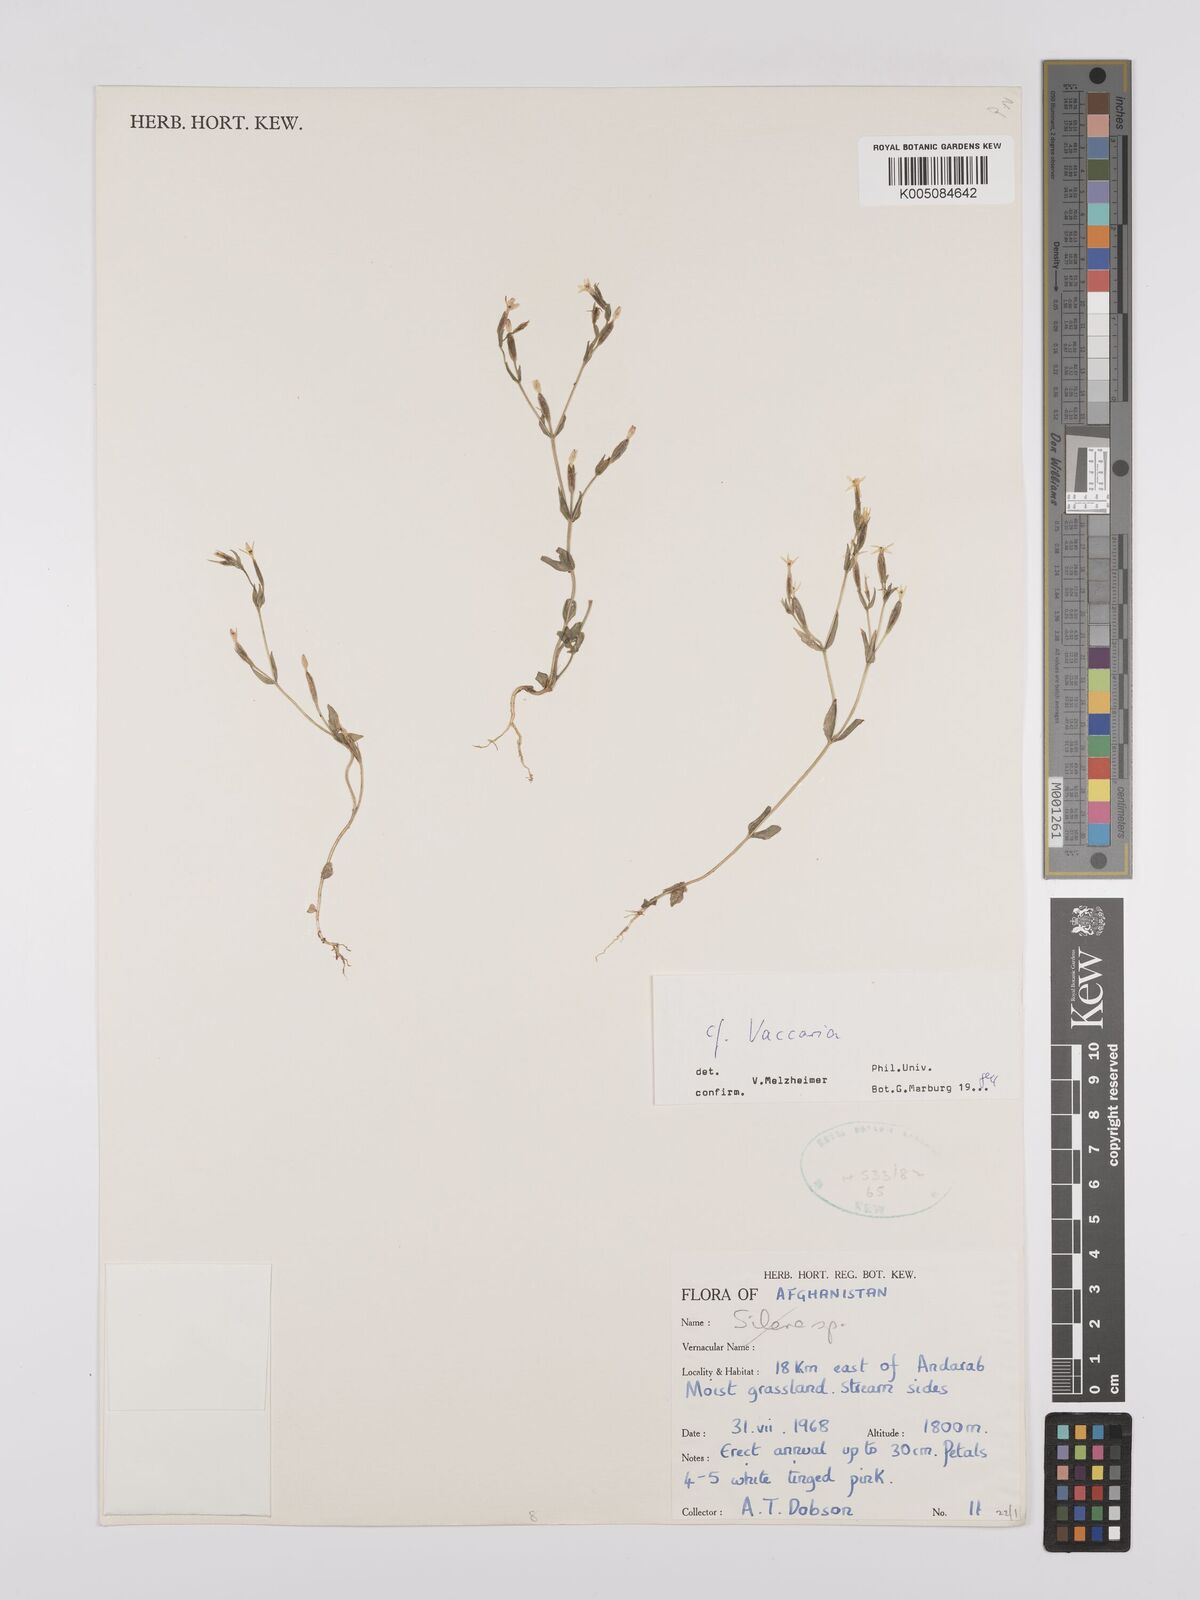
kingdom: Plantae
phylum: Tracheophyta
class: Magnoliopsida
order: Caryophyllales
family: Caryophyllaceae
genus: Vaccaria
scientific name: Vaccaria
